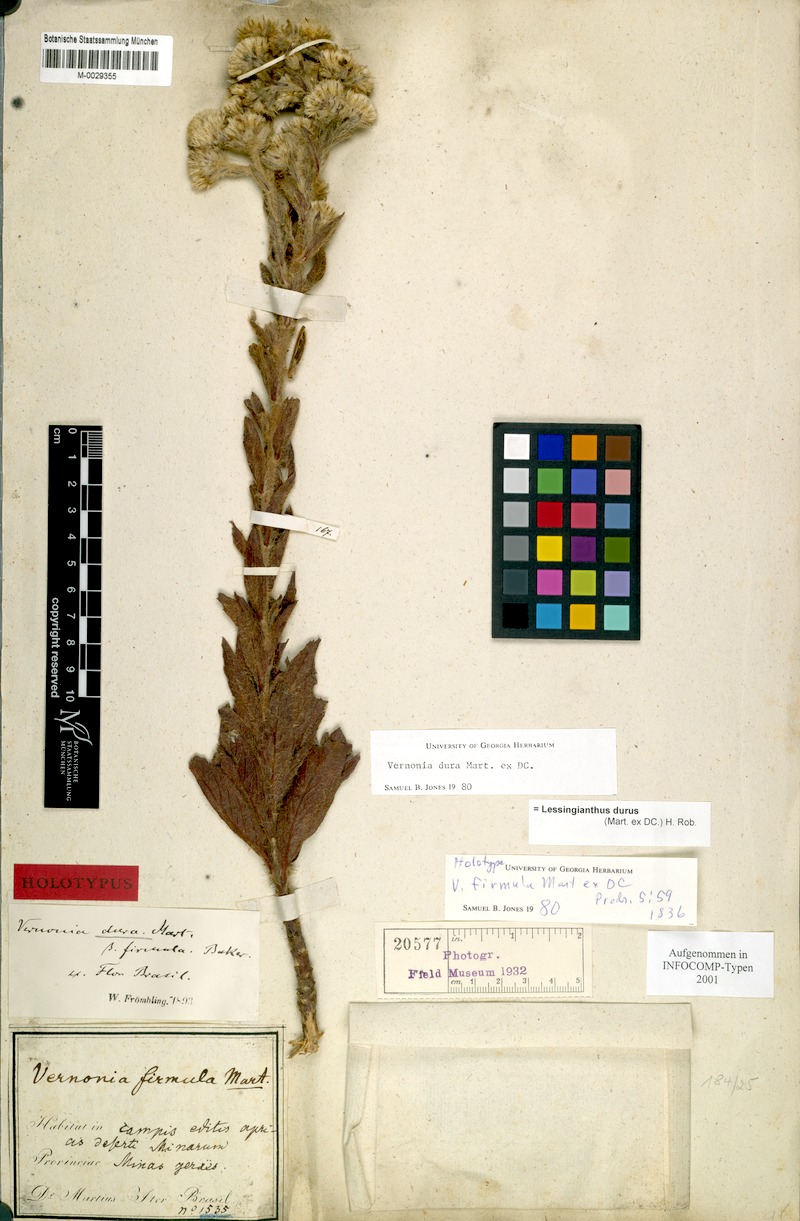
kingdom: Plantae
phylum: Tracheophyta
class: Magnoliopsida
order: Asterales
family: Asteraceae
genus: Lessingianthus
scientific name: Lessingianthus durus
